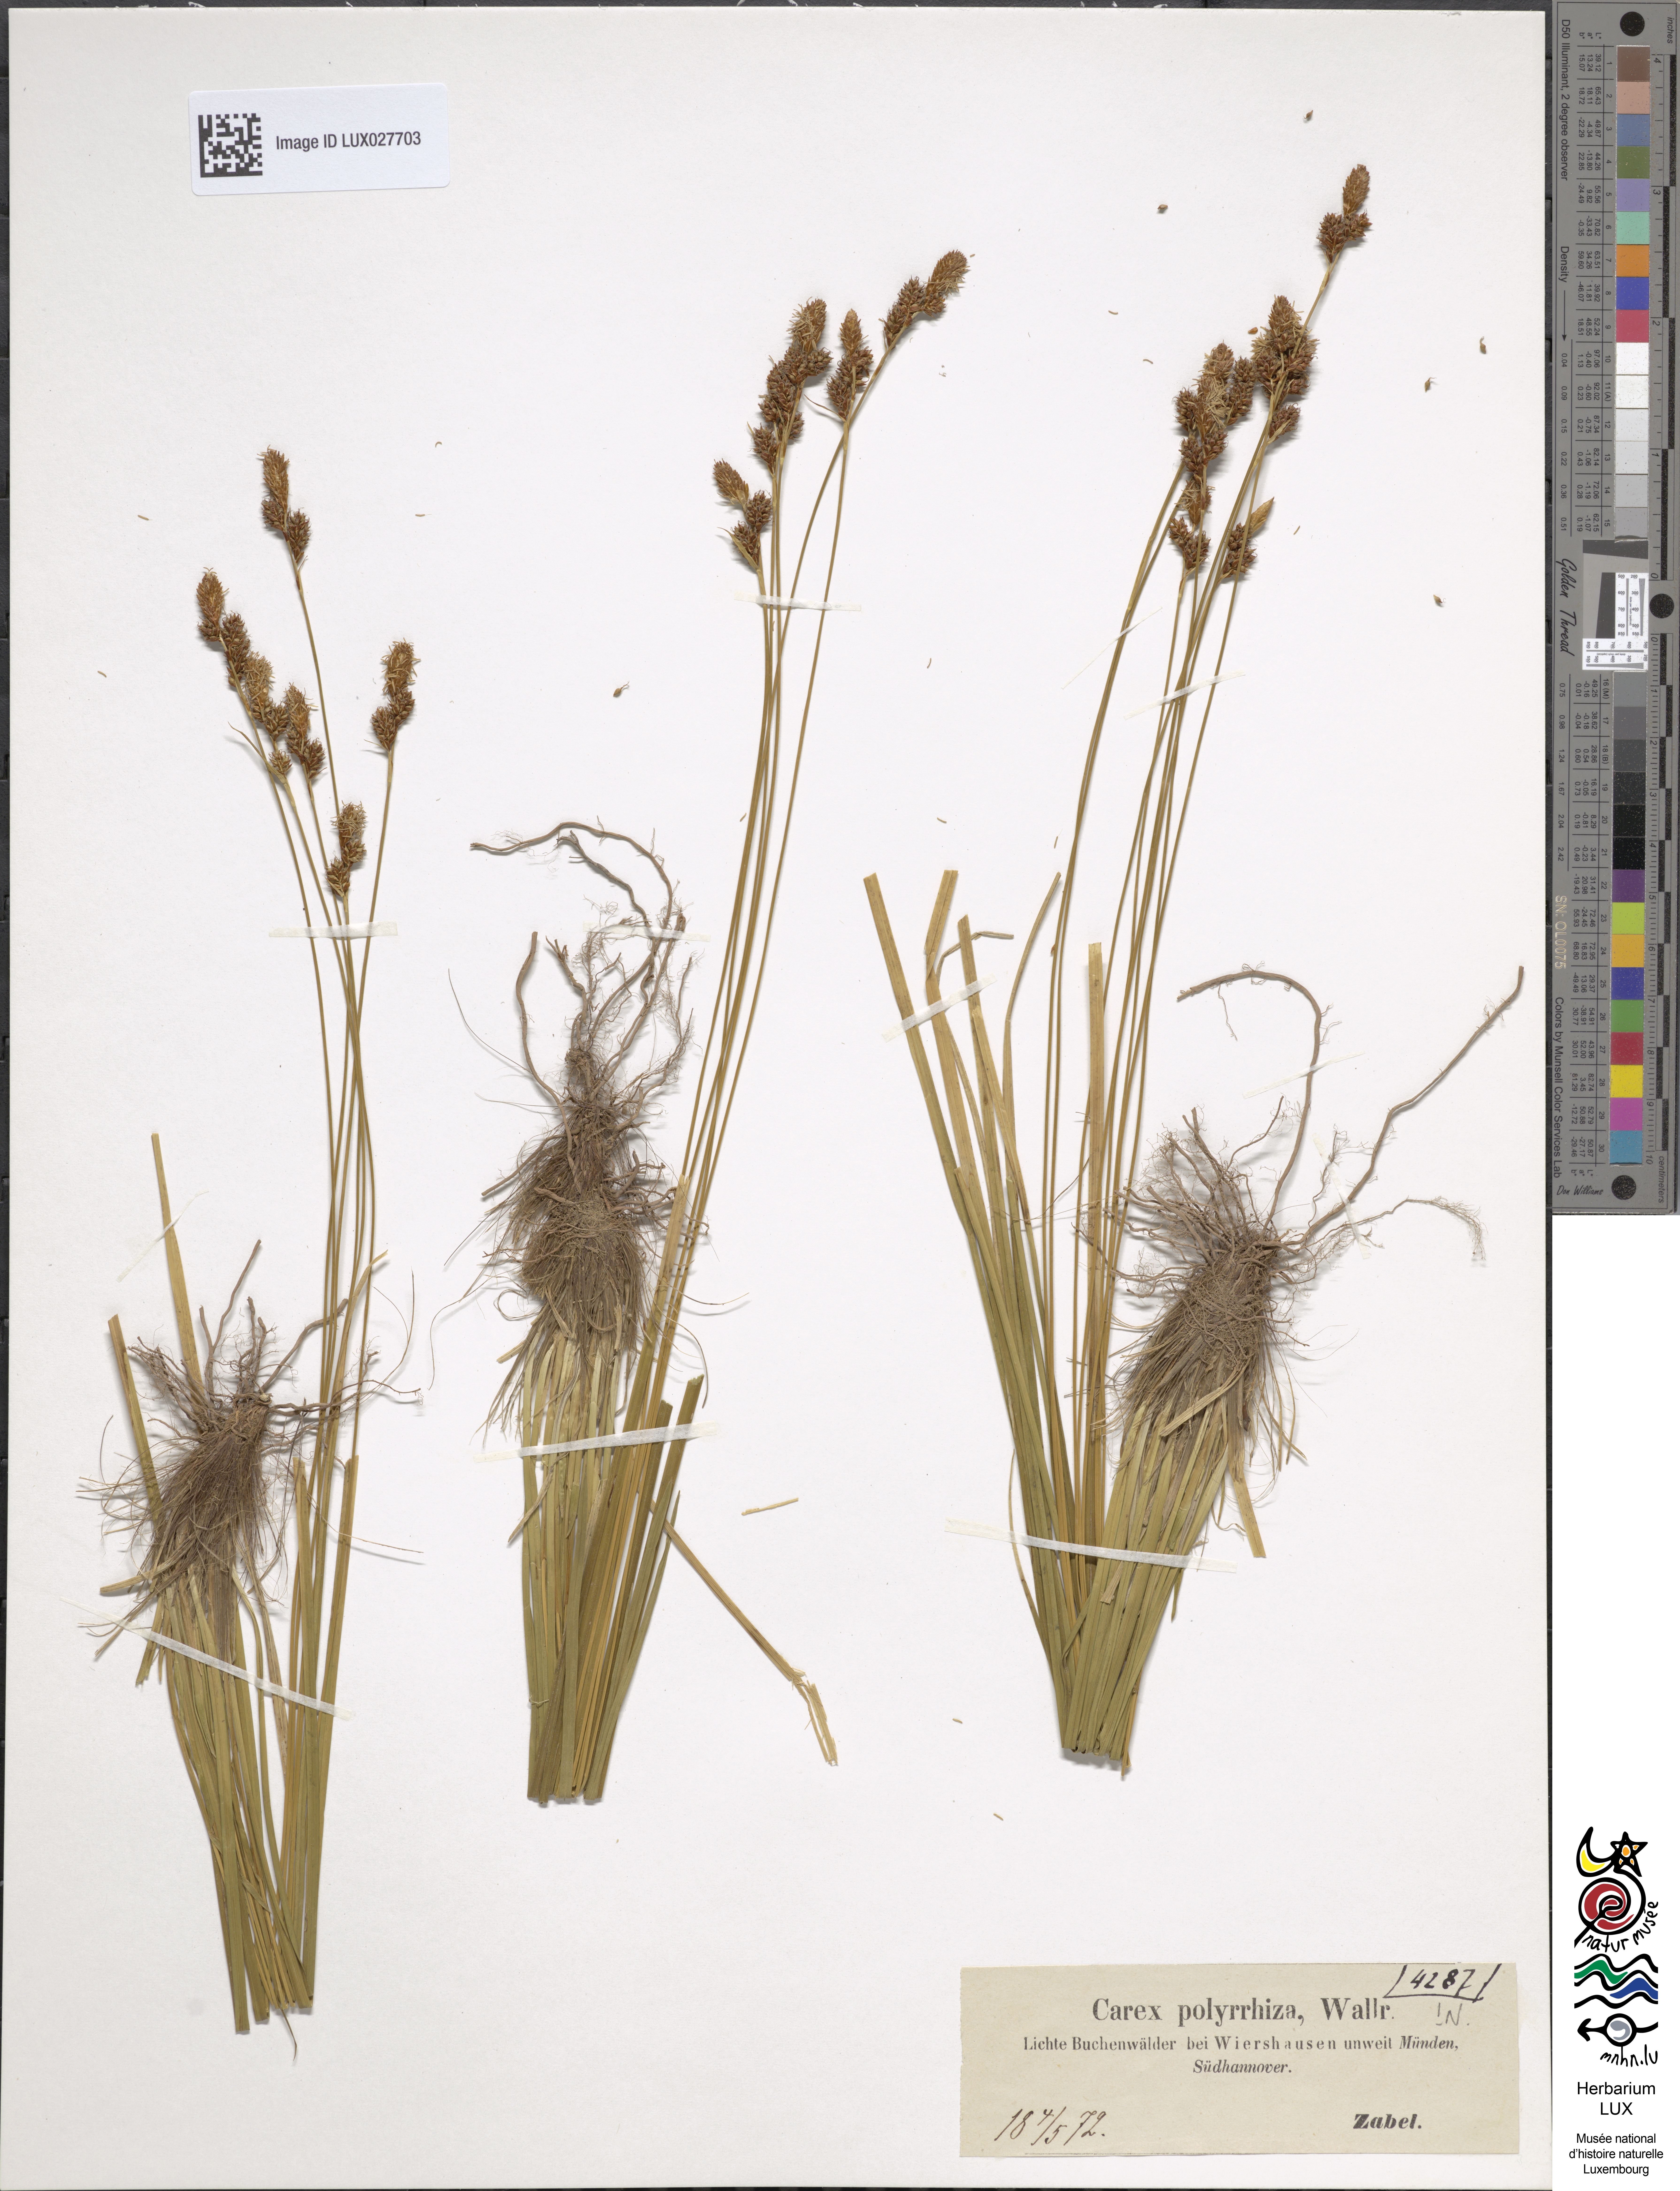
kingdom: Plantae
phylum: Tracheophyta
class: Liliopsida
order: Poales
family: Cyperaceae
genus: Carex
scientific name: Carex umbrosa
